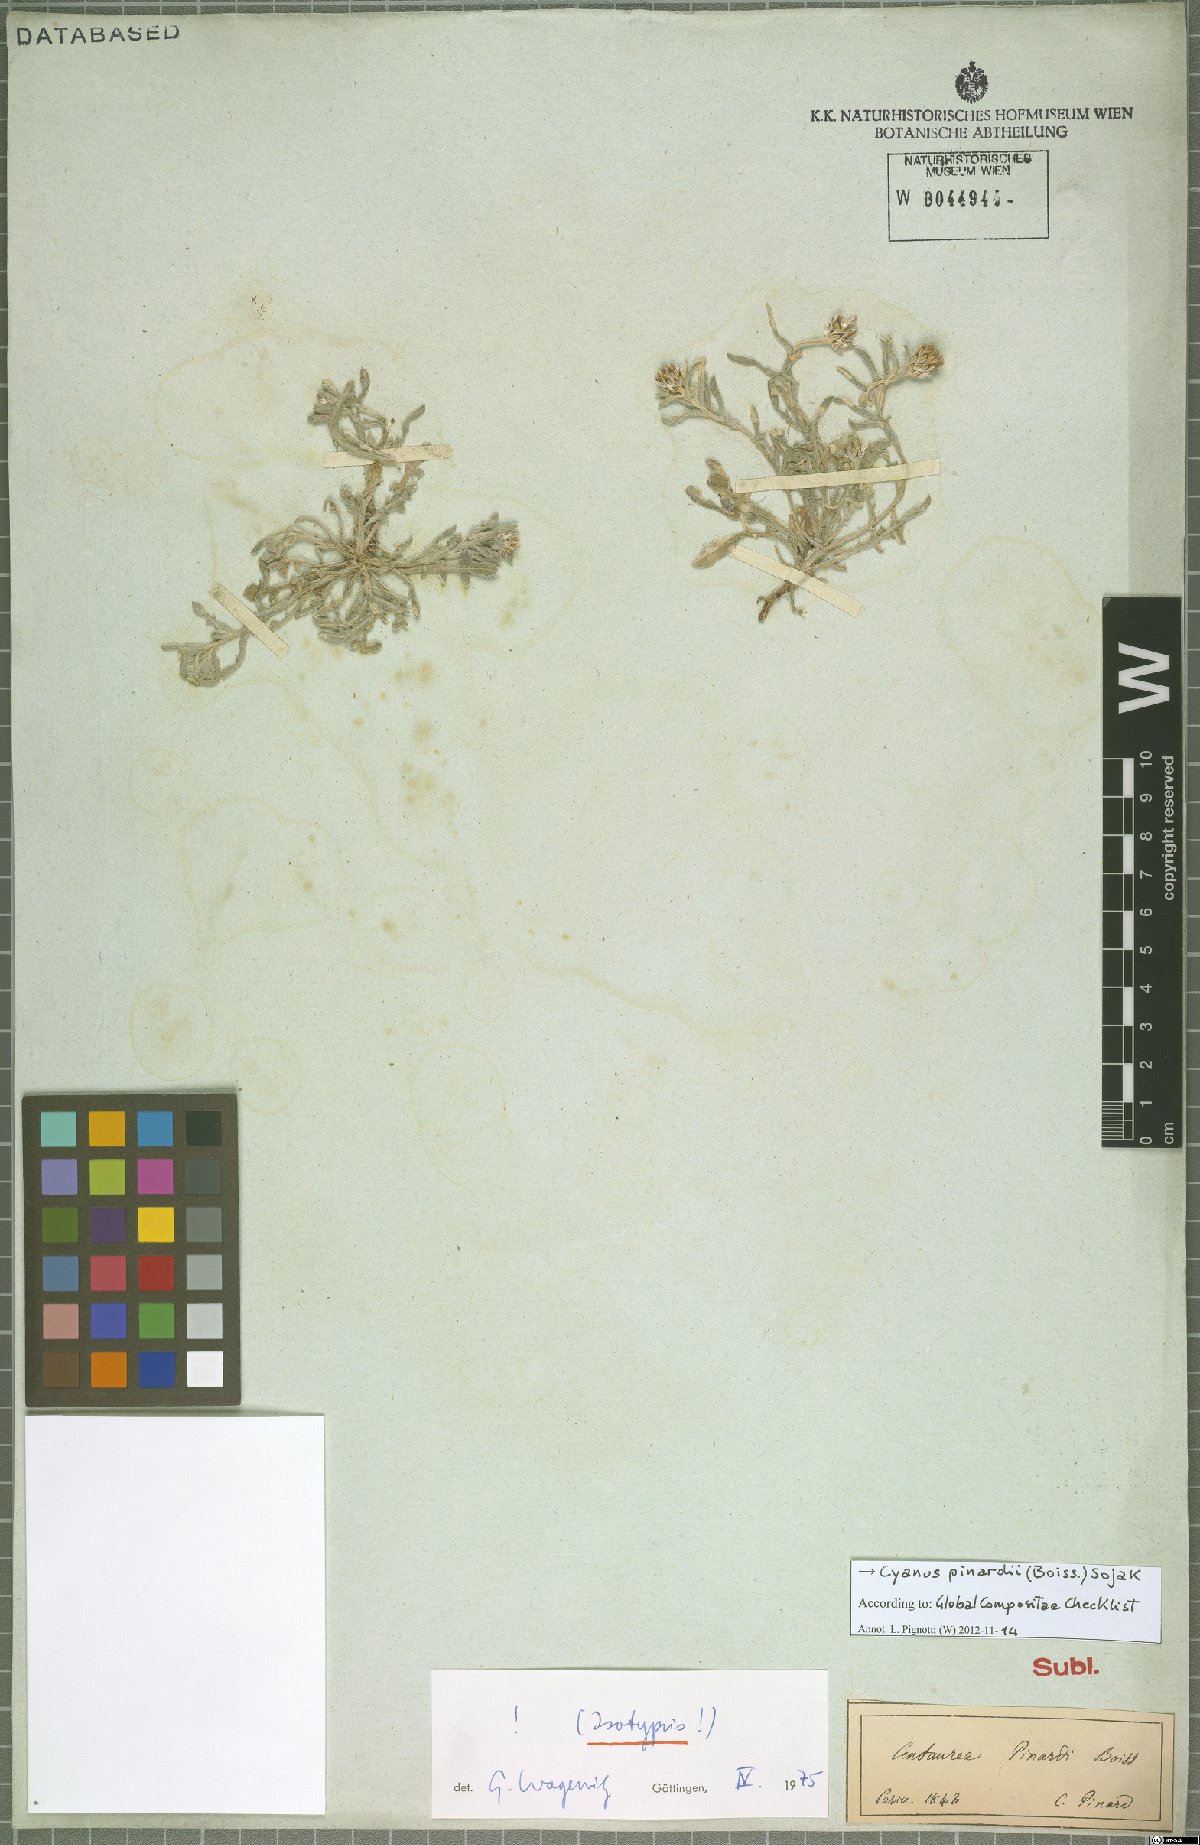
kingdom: Plantae
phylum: Tracheophyta
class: Magnoliopsida
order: Asterales
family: Asteraceae
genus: Centaurea
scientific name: Centaurea pinardii
